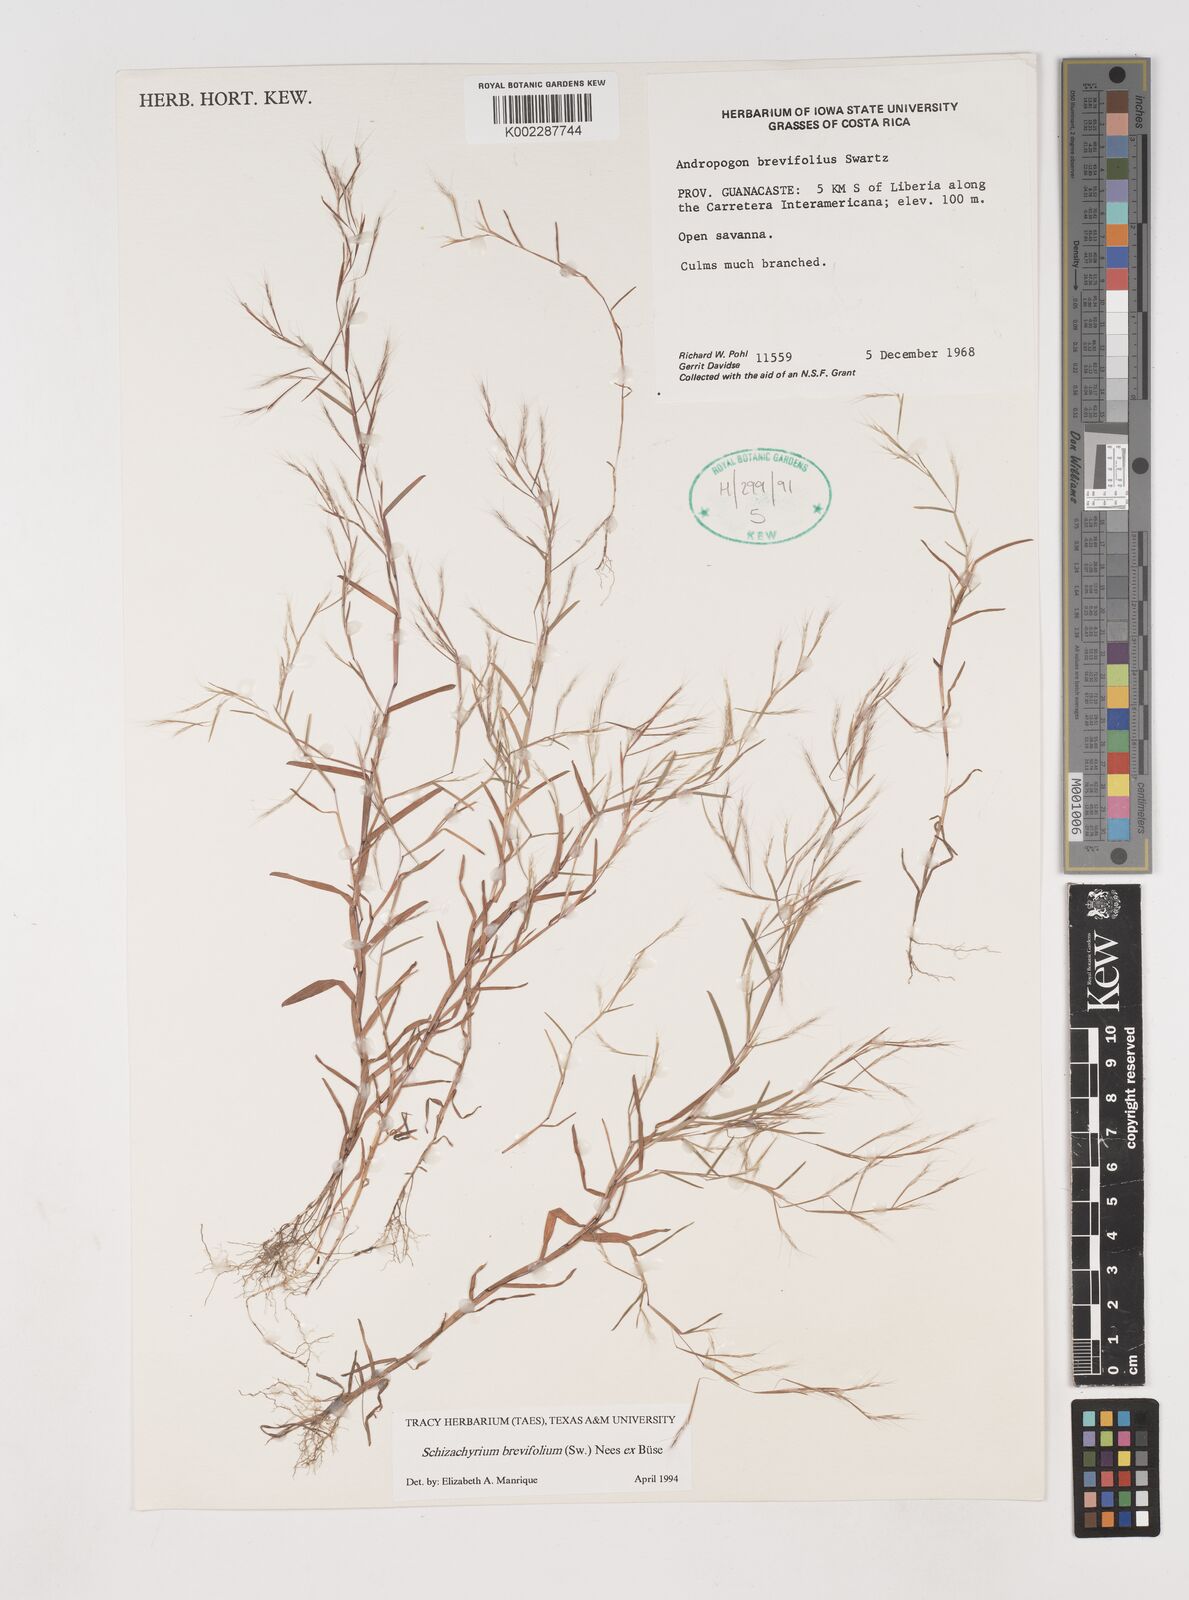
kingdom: Plantae
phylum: Tracheophyta
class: Liliopsida
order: Poales
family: Poaceae
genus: Schizachyrium
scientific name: Schizachyrium brevifolium
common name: Serillo dulce
